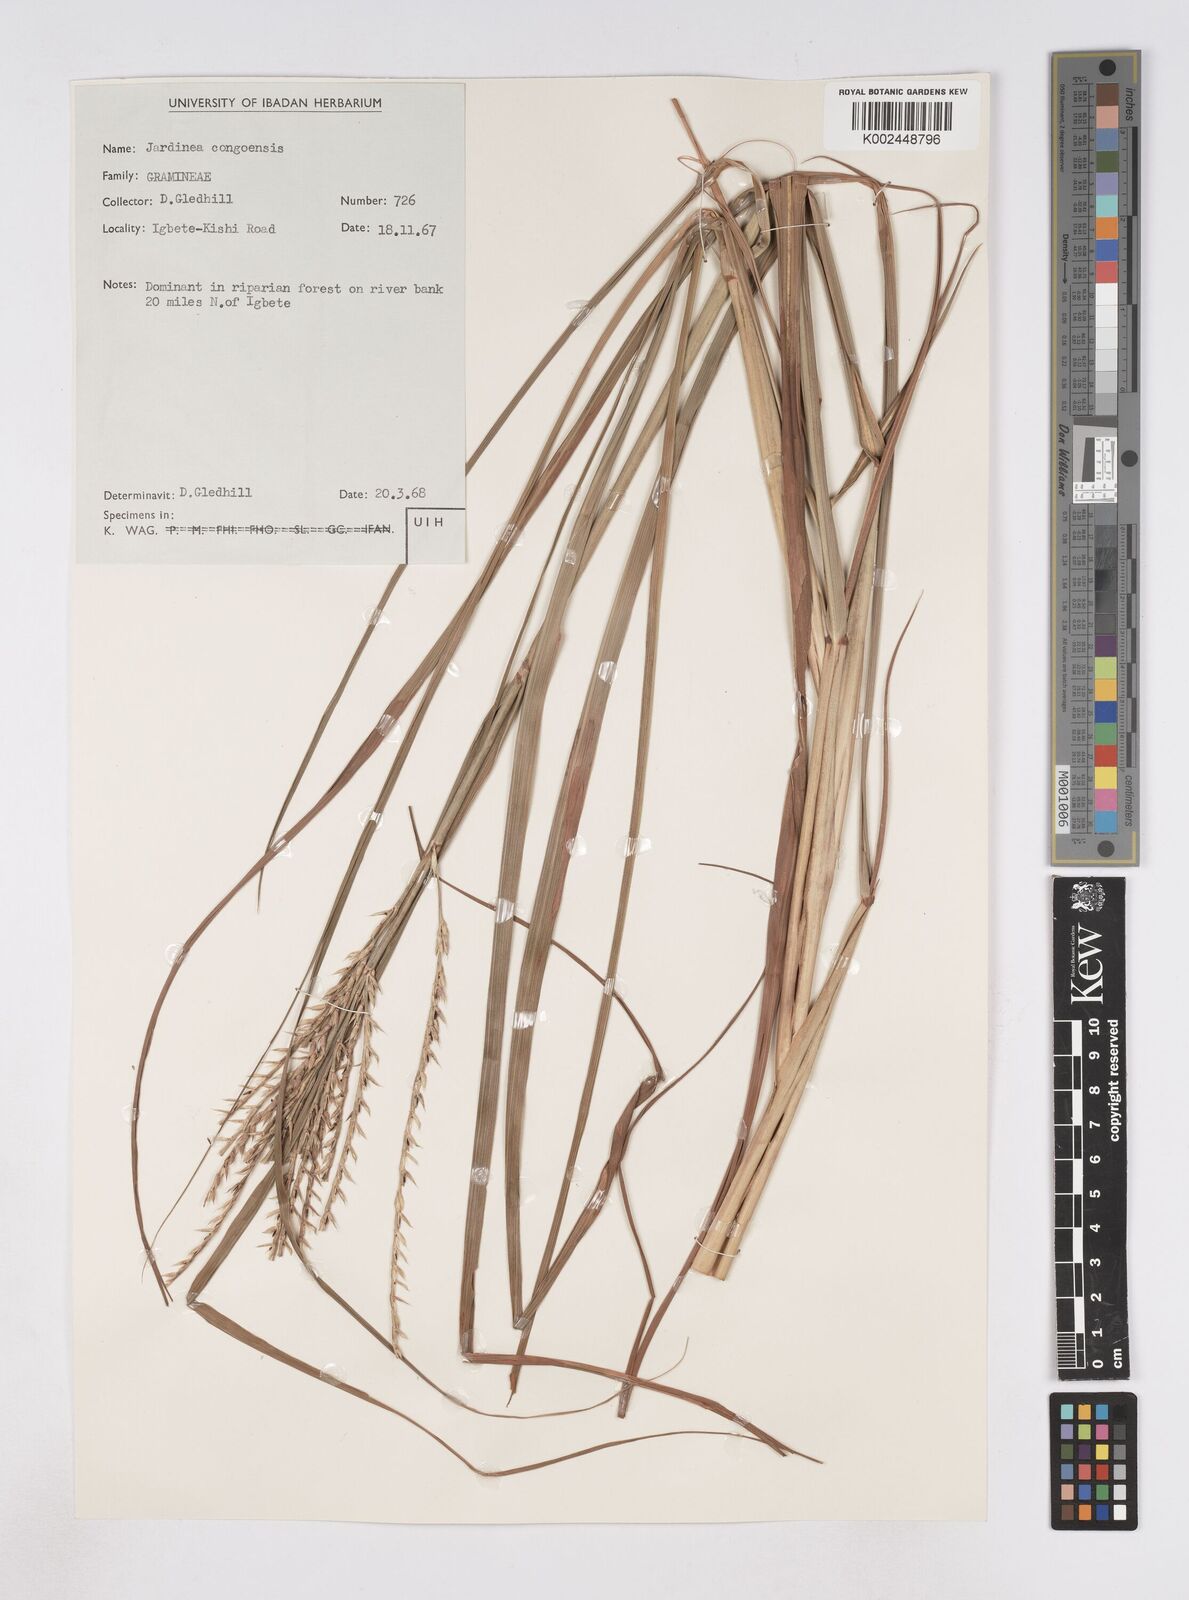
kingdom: Plantae
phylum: Tracheophyta
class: Liliopsida
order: Poales
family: Poaceae
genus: Phacelurus
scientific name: Phacelurus gabonensis
